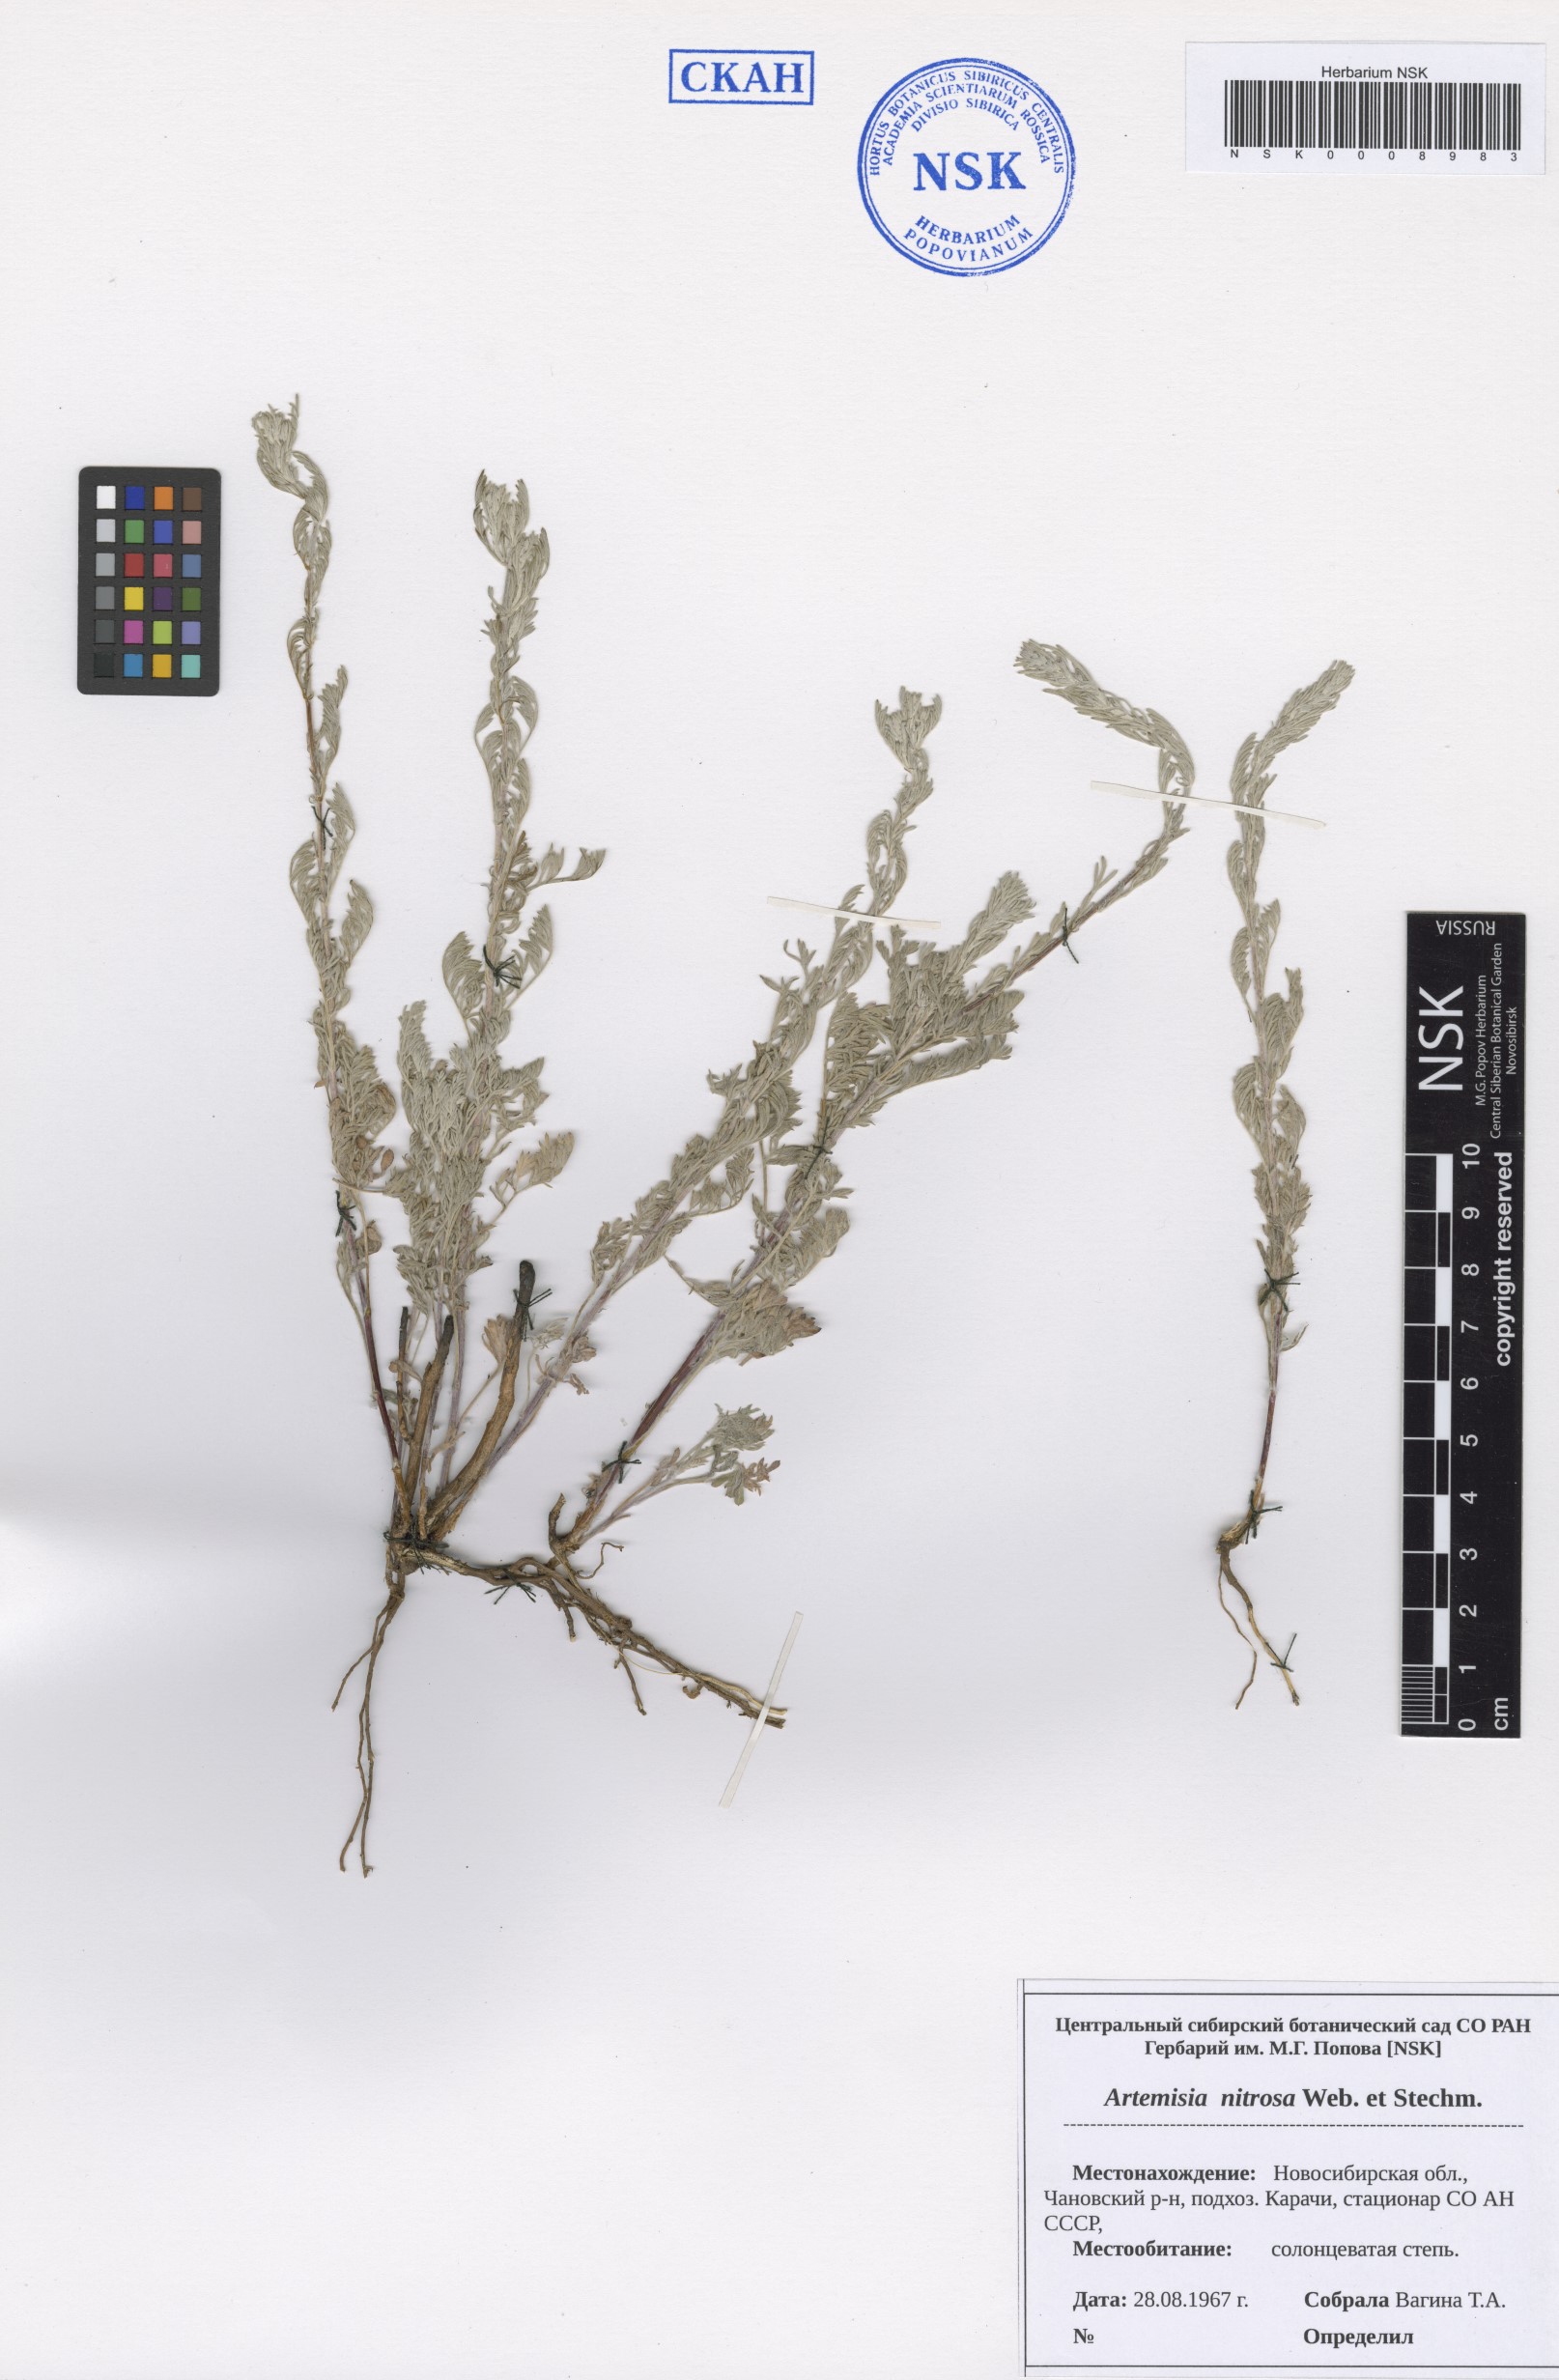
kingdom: Plantae
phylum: Tracheophyta
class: Magnoliopsida
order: Asterales
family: Asteraceae
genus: Artemisia
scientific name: Artemisia nitrosa
